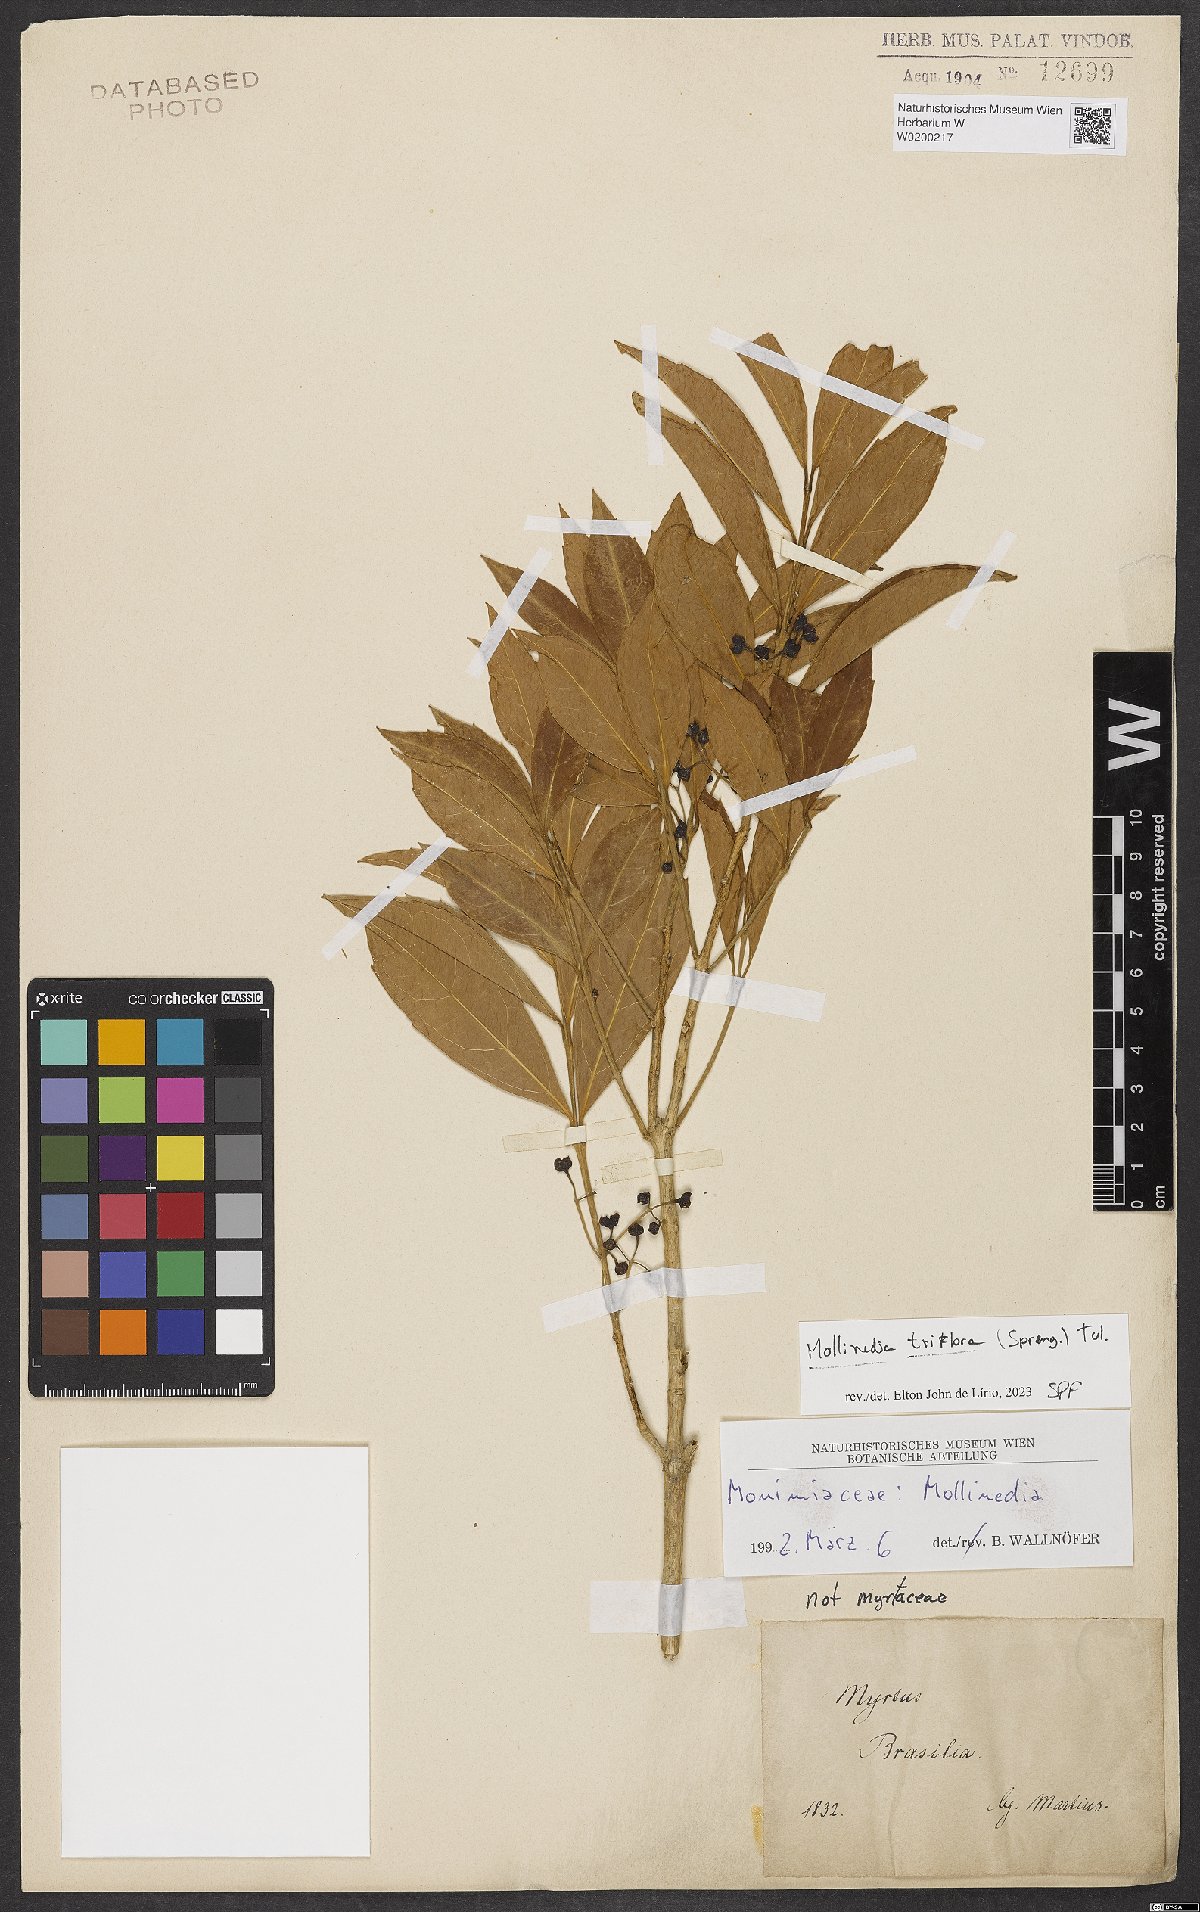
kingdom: Plantae
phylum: Tracheophyta
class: Magnoliopsida
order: Laurales
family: Monimiaceae
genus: Mollinedia
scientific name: Mollinedia triflora
